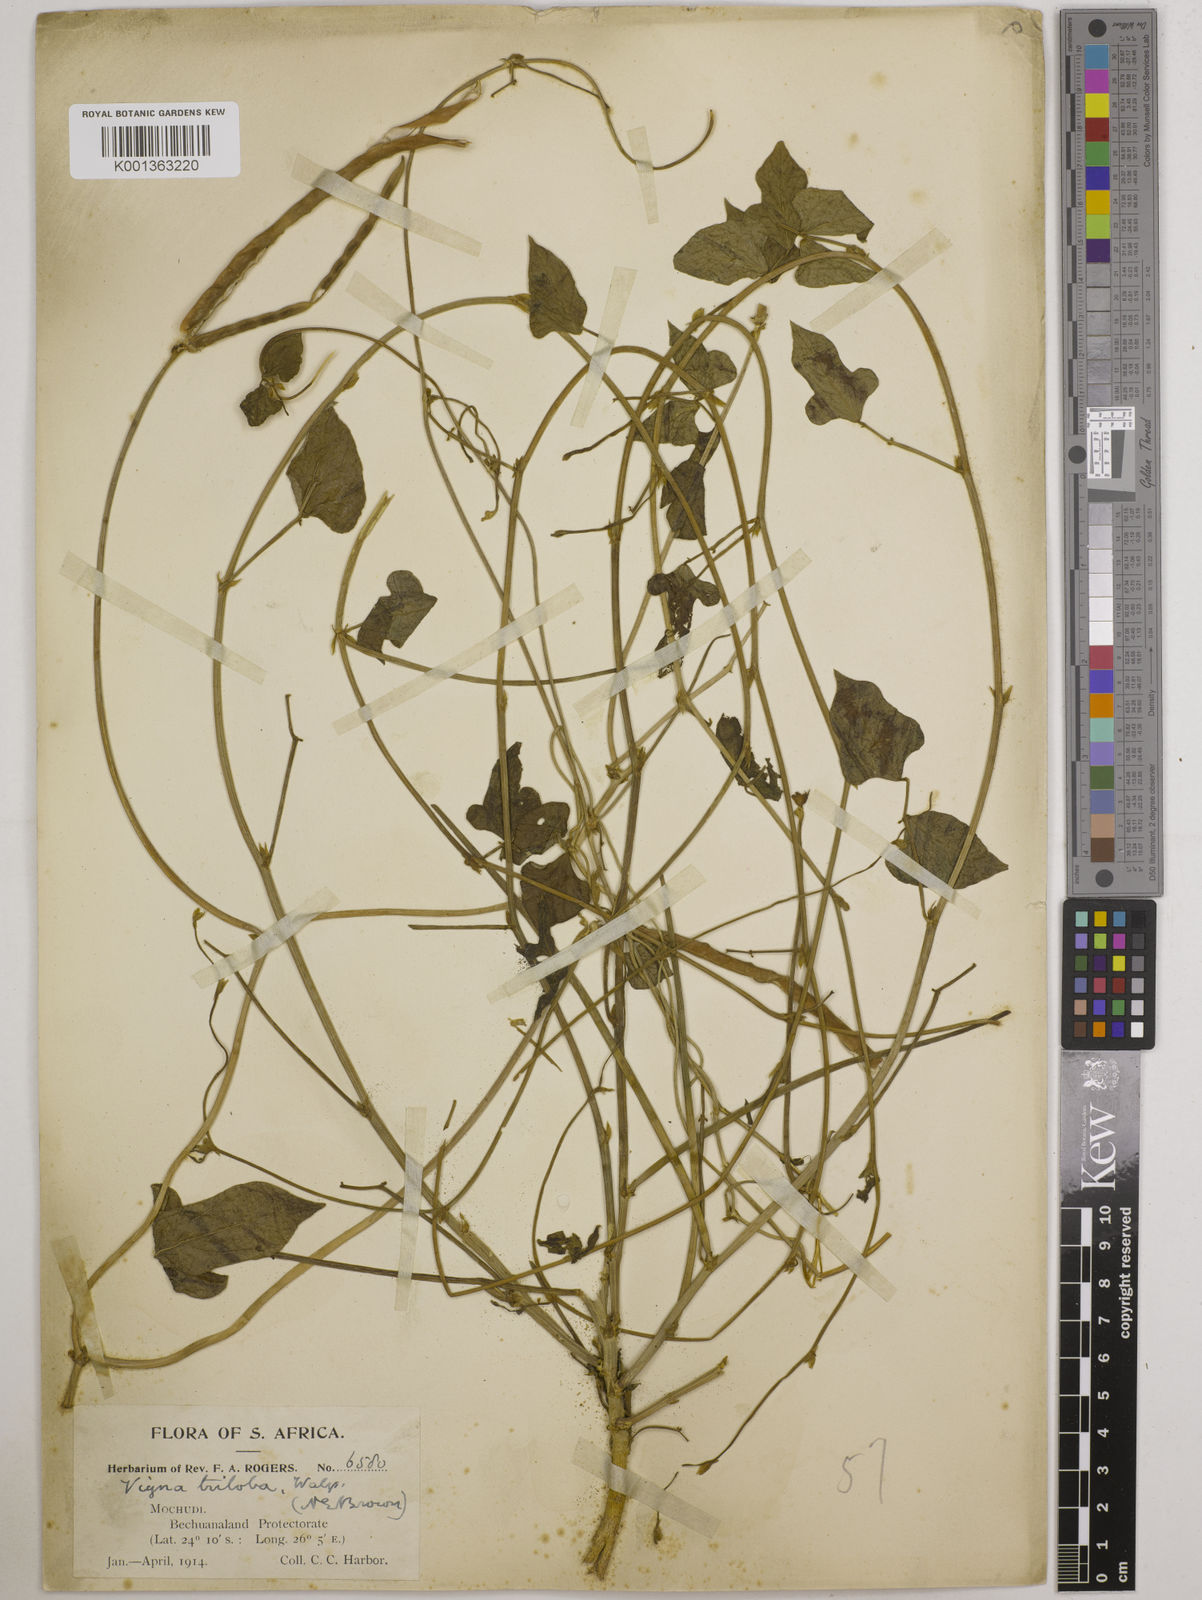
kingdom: Plantae
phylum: Tracheophyta
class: Magnoliopsida
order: Fabales
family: Fabaceae
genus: Vigna
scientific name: Vigna unguiculata
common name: Cowpea
